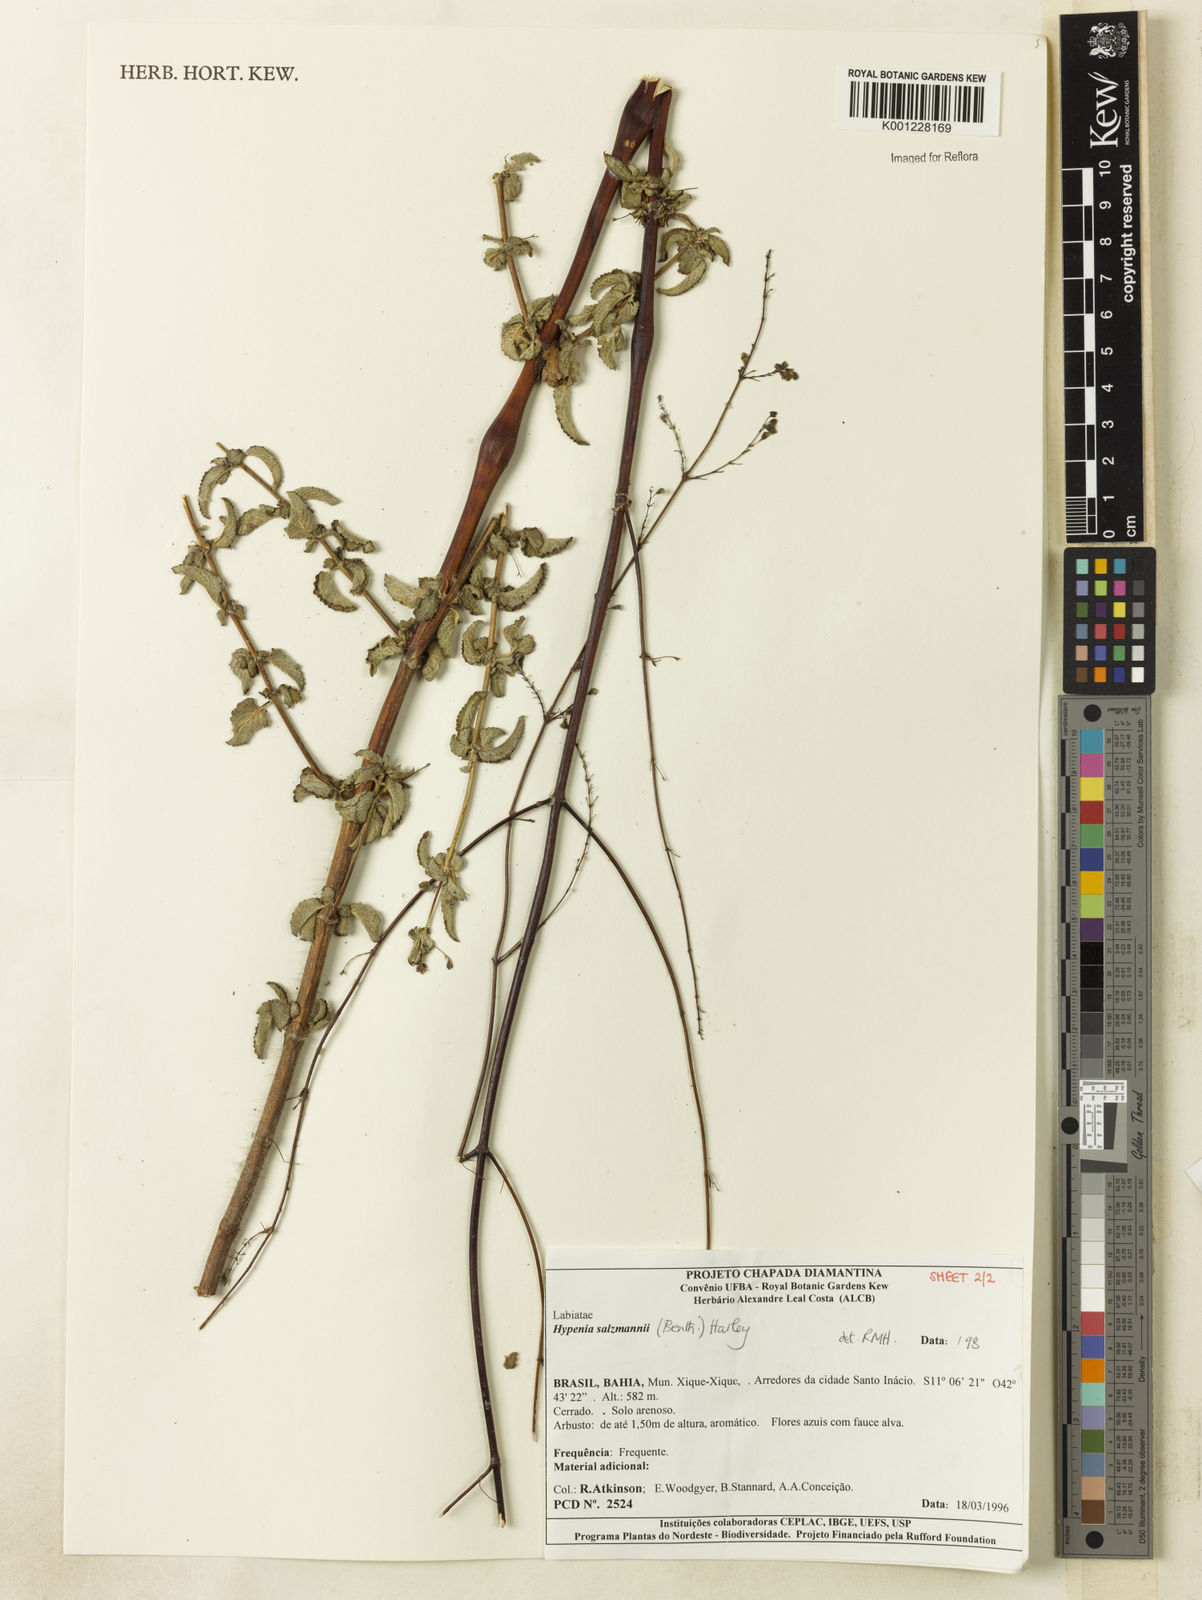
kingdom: Plantae
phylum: Tracheophyta
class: Magnoliopsida
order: Lamiales
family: Lamiaceae
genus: Hypenia
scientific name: Hypenia salzmannii
